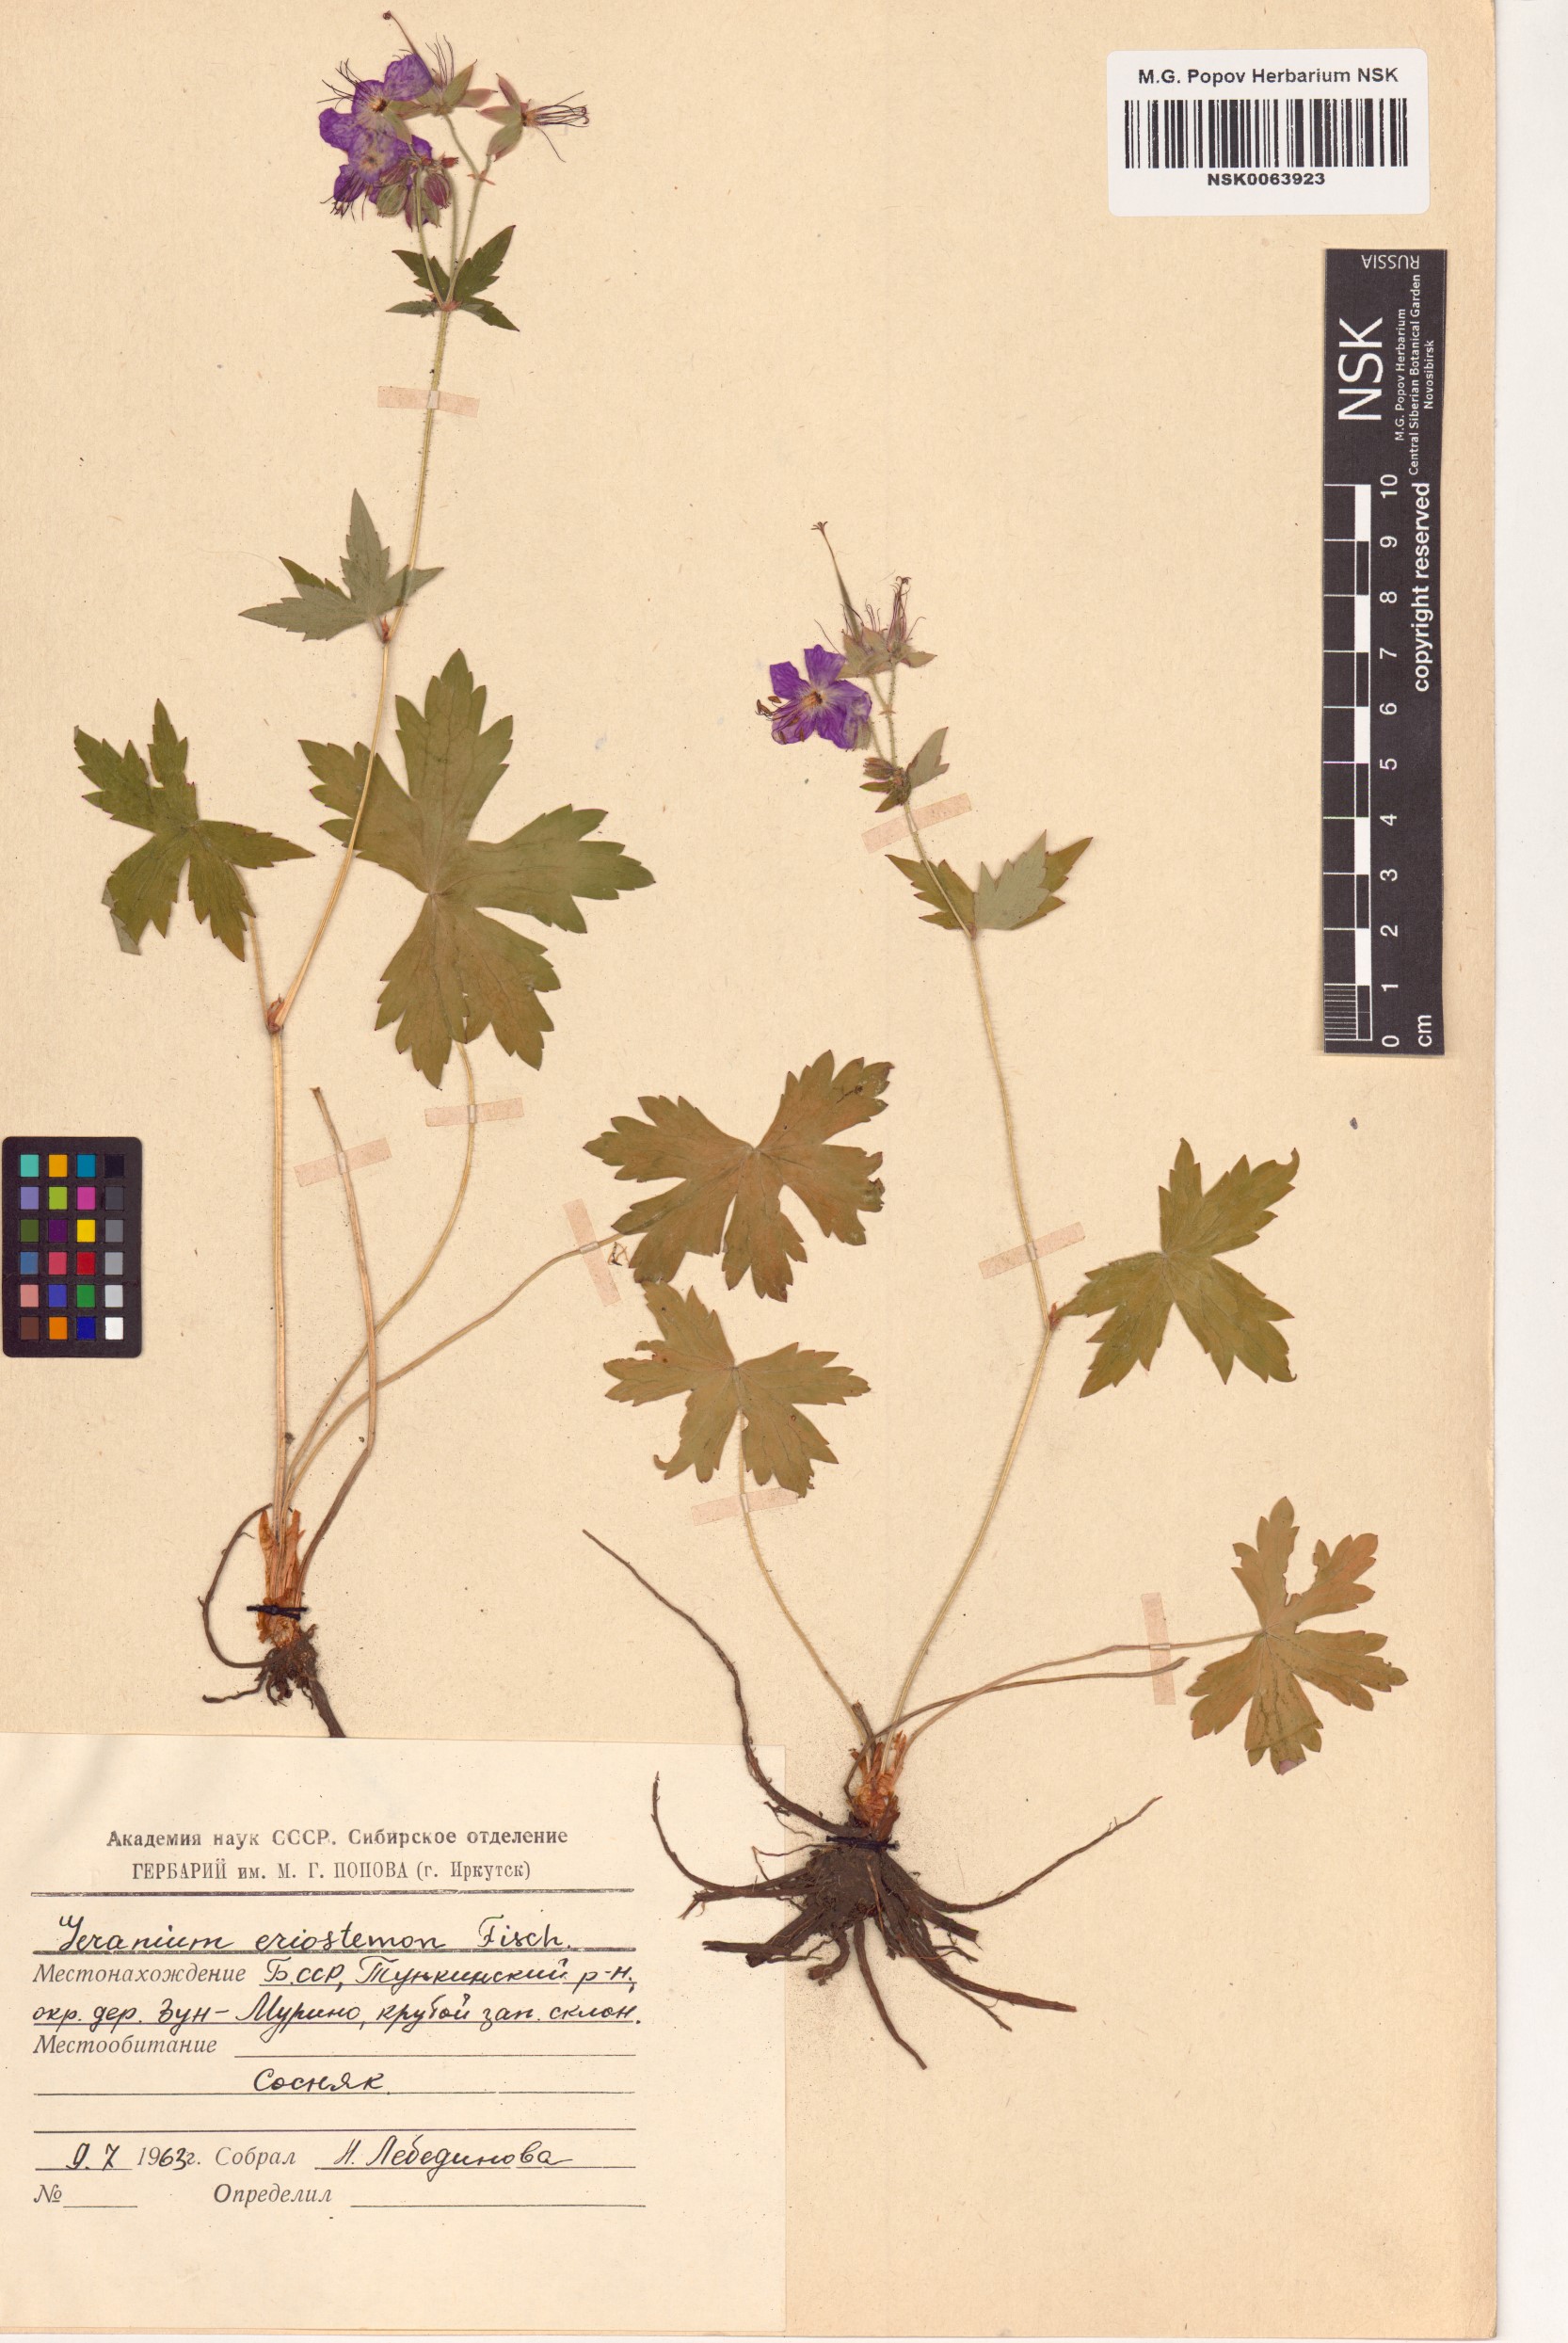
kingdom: Plantae
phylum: Tracheophyta
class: Magnoliopsida
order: Geraniales
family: Geraniaceae
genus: Geranium
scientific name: Geranium platyanthum
